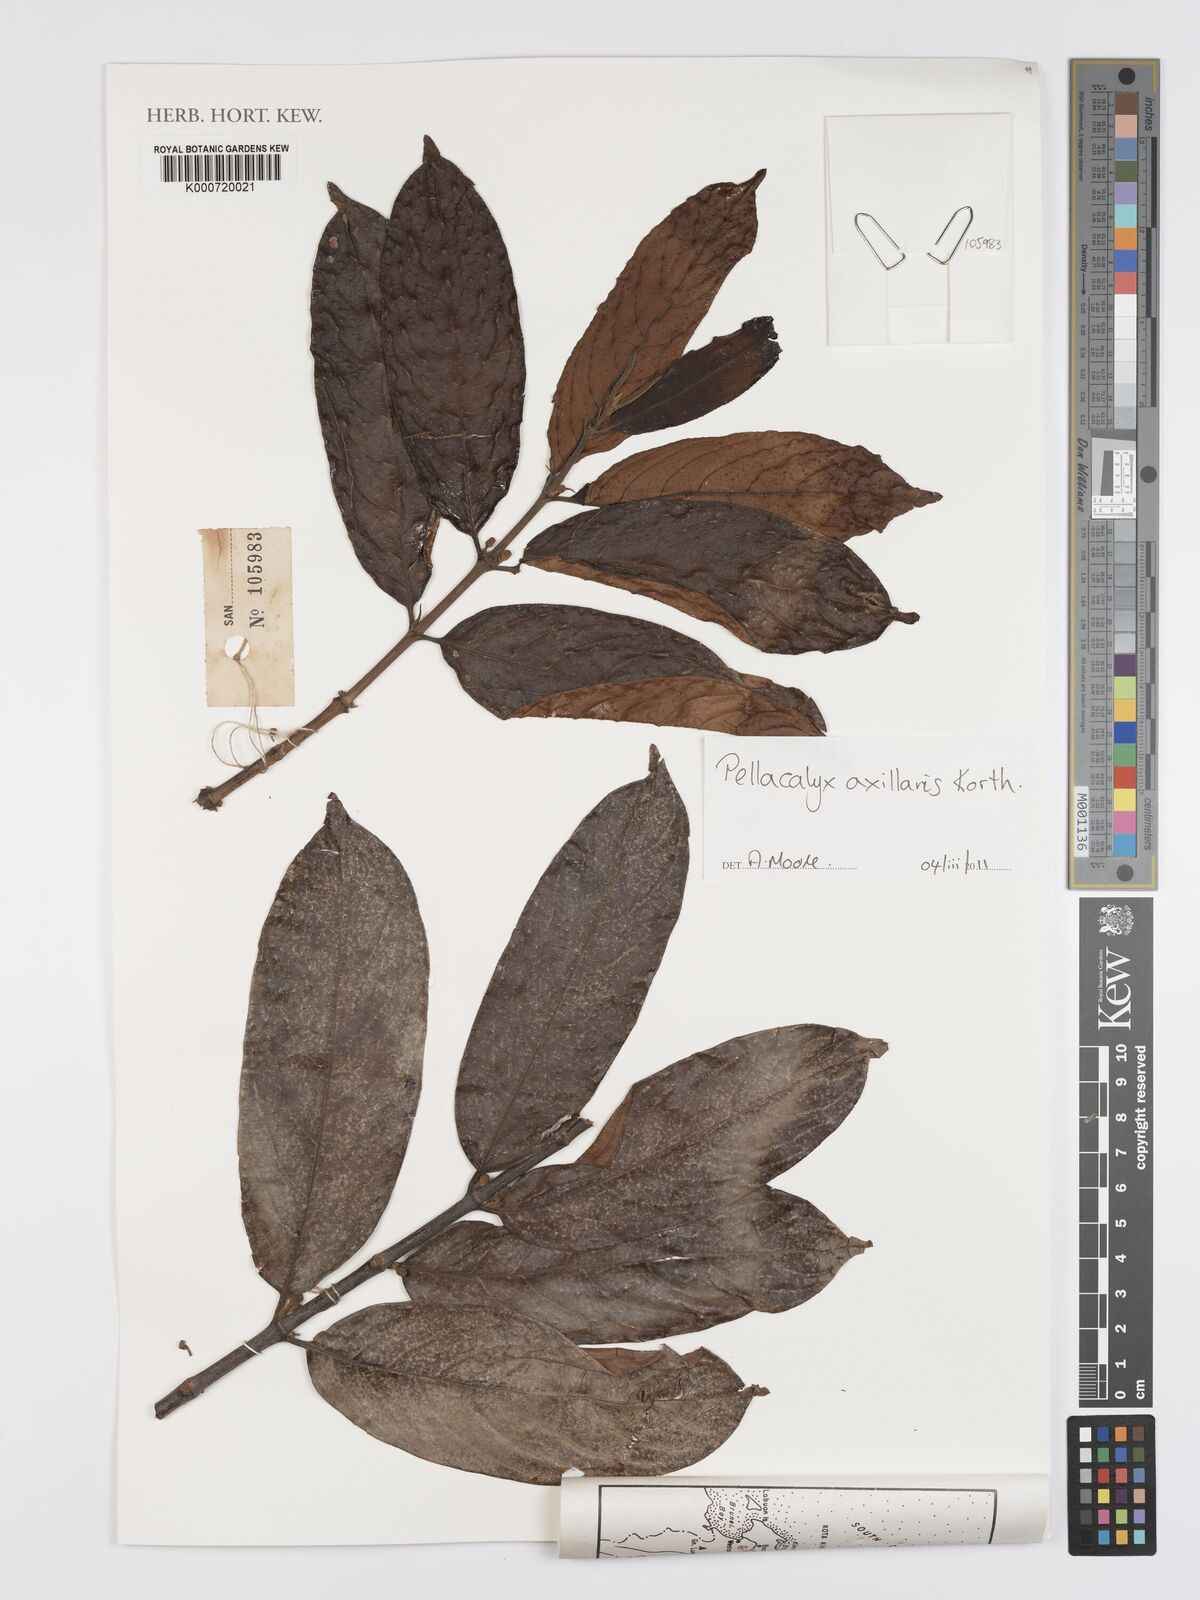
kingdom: Plantae
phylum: Tracheophyta
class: Magnoliopsida
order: Malpighiales
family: Rhizophoraceae
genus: Pellacalyx
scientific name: Pellacalyx axillaris
